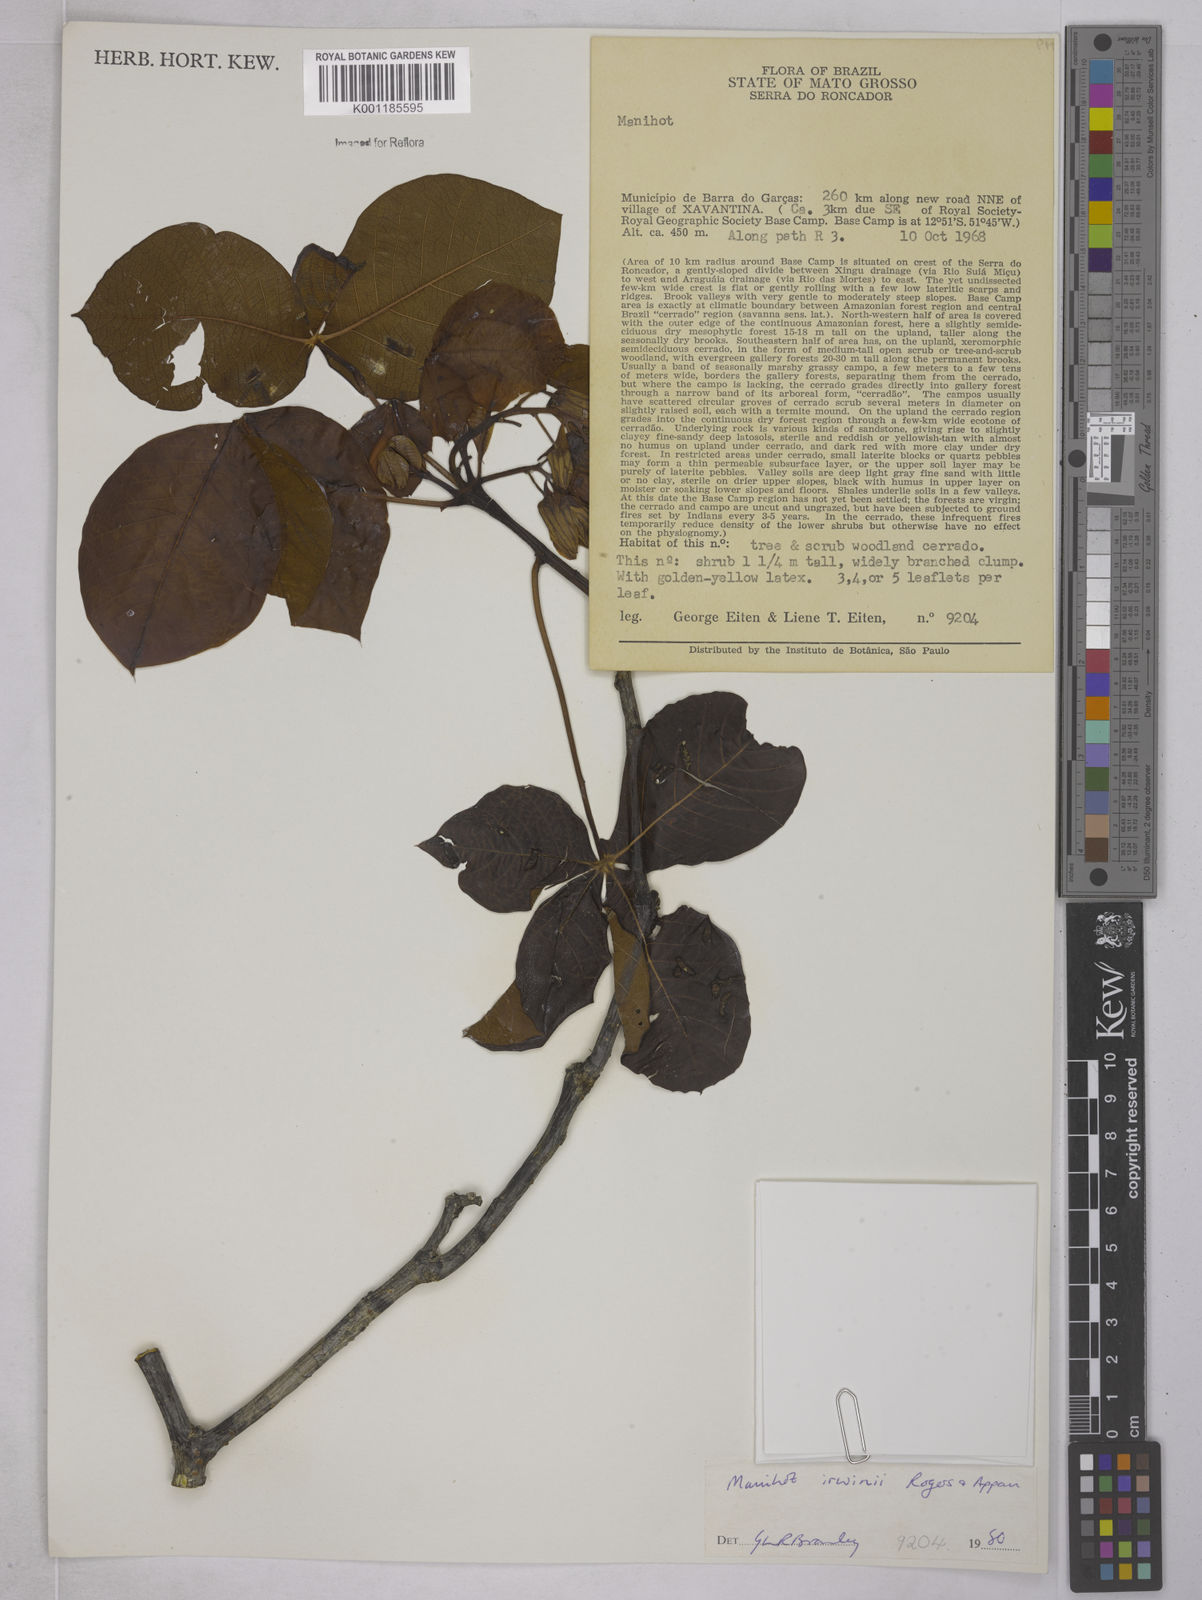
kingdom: Plantae
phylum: Tracheophyta
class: Magnoliopsida
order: Malpighiales
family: Euphorbiaceae
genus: Manihot
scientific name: Manihot irwinii
